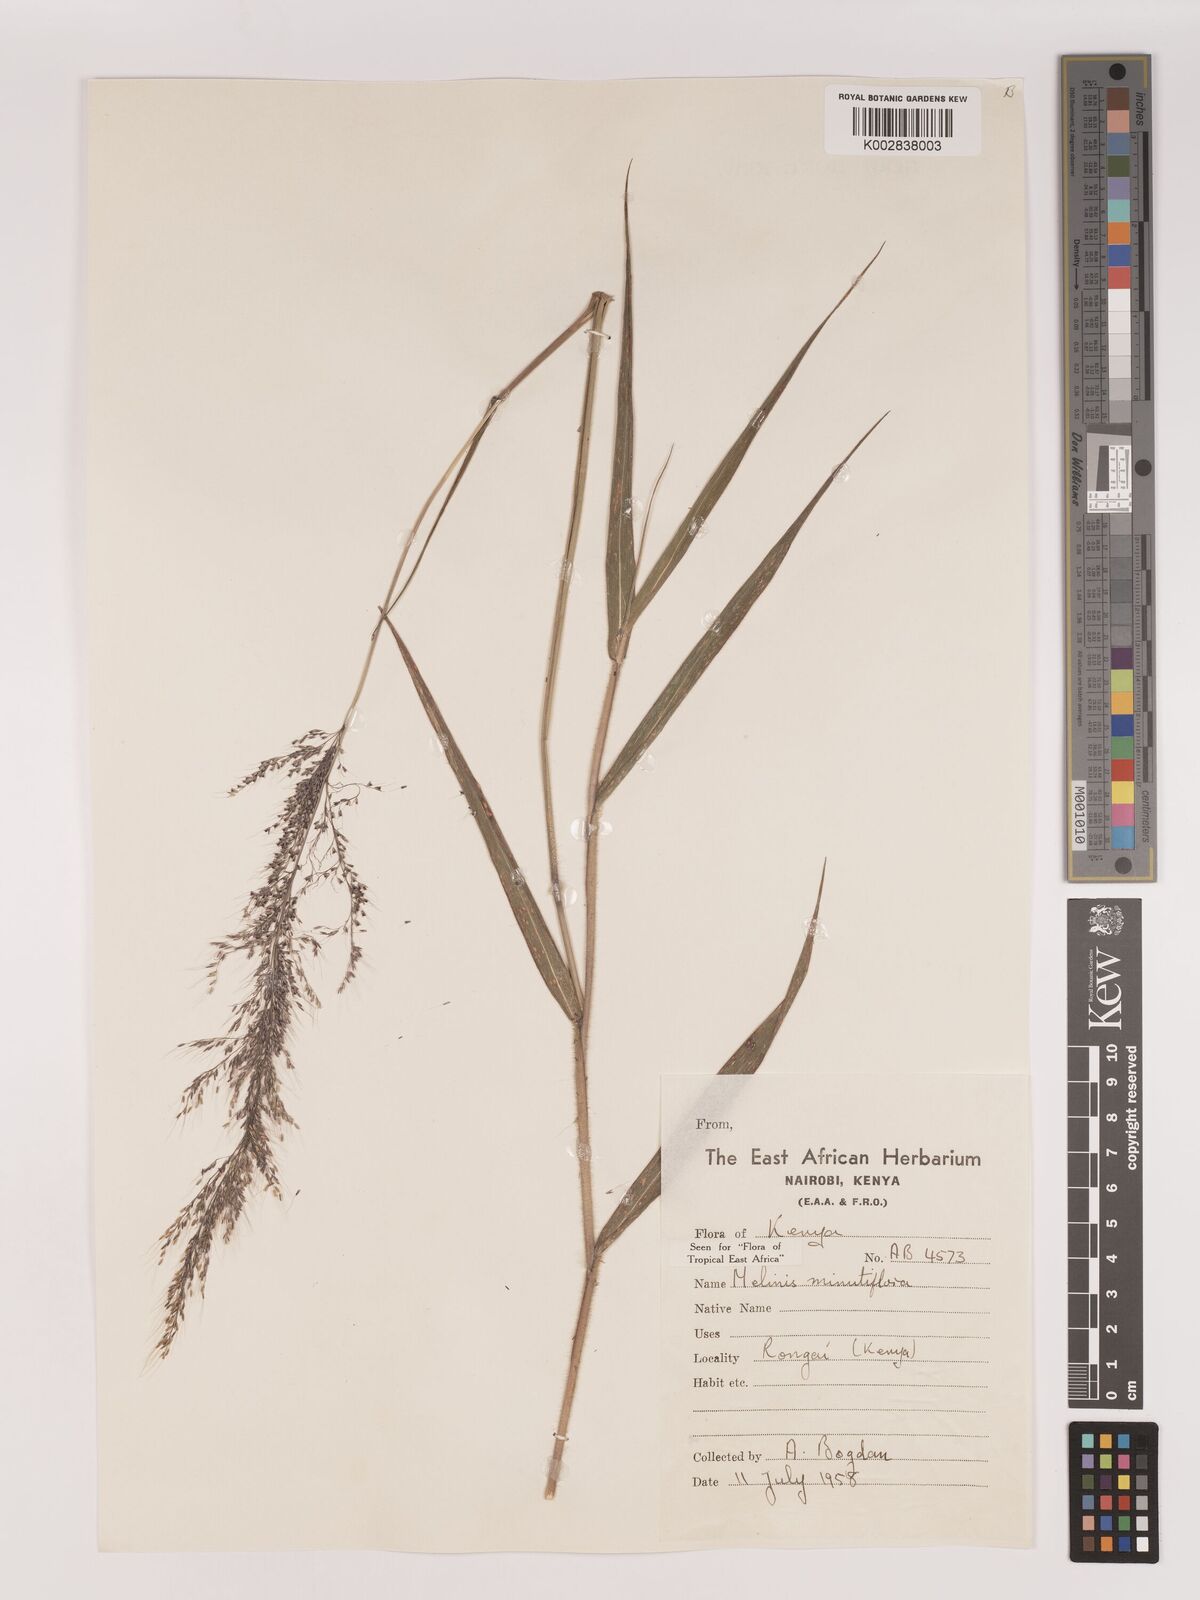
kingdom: Plantae
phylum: Tracheophyta
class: Liliopsida
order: Poales
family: Poaceae
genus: Melinis
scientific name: Melinis minutiflora
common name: Molassesgrass
